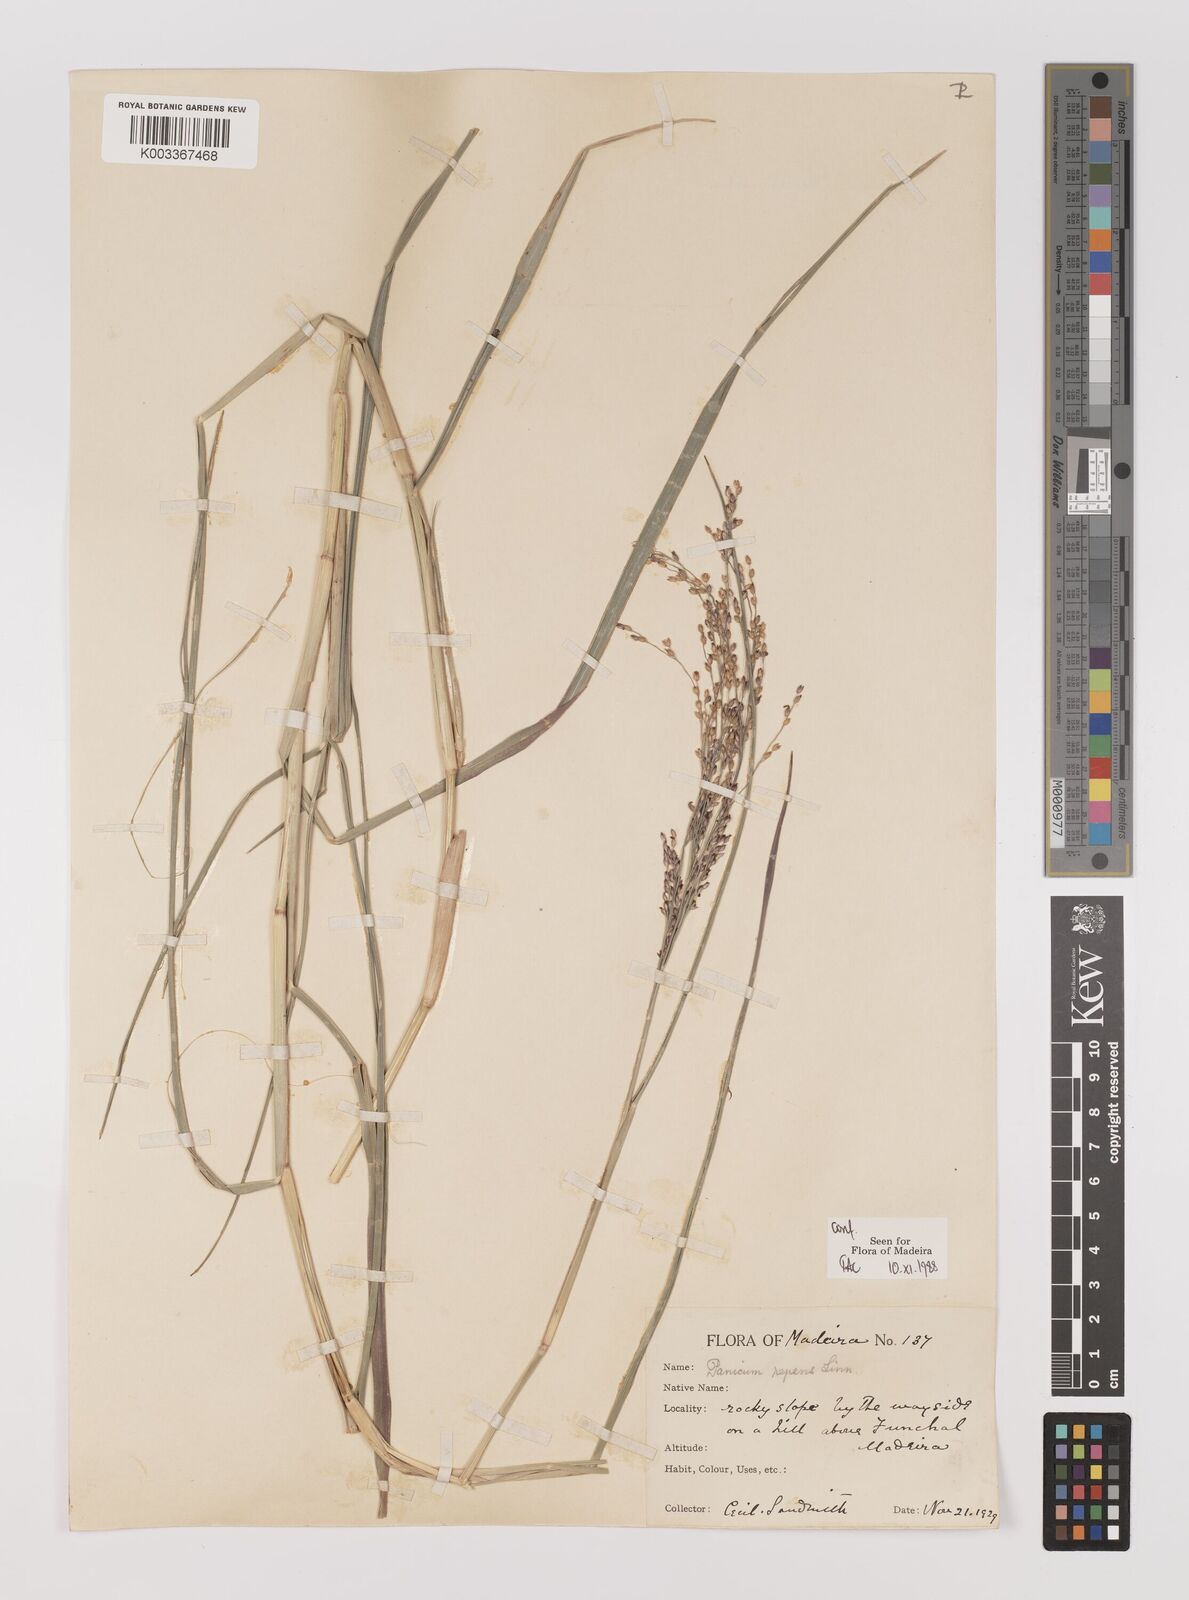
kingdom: Plantae
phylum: Tracheophyta
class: Liliopsida
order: Poales
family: Poaceae
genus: Panicum
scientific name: Panicum repens
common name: Torpedo grass
